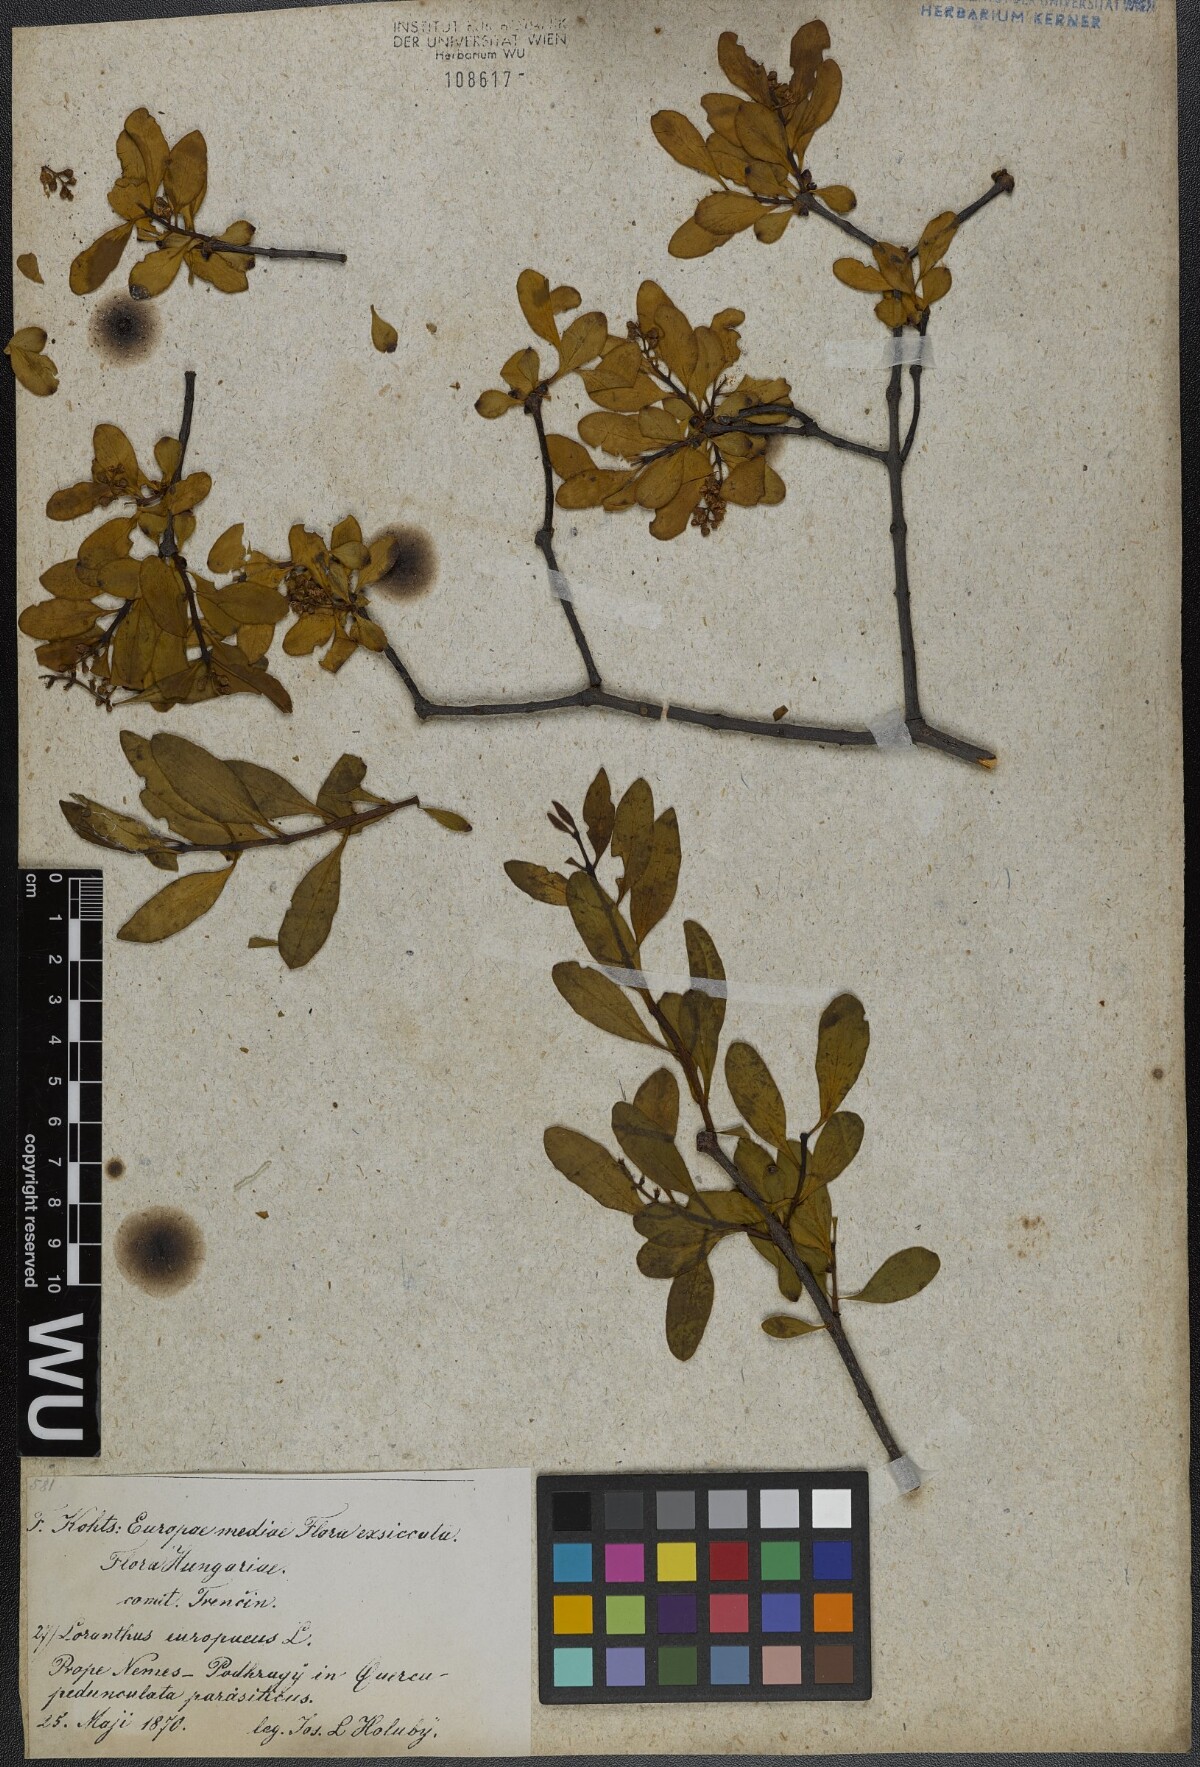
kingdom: Plantae
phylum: Tracheophyta
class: Magnoliopsida
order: Santalales
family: Loranthaceae
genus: Loranthus
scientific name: Loranthus europaeus
